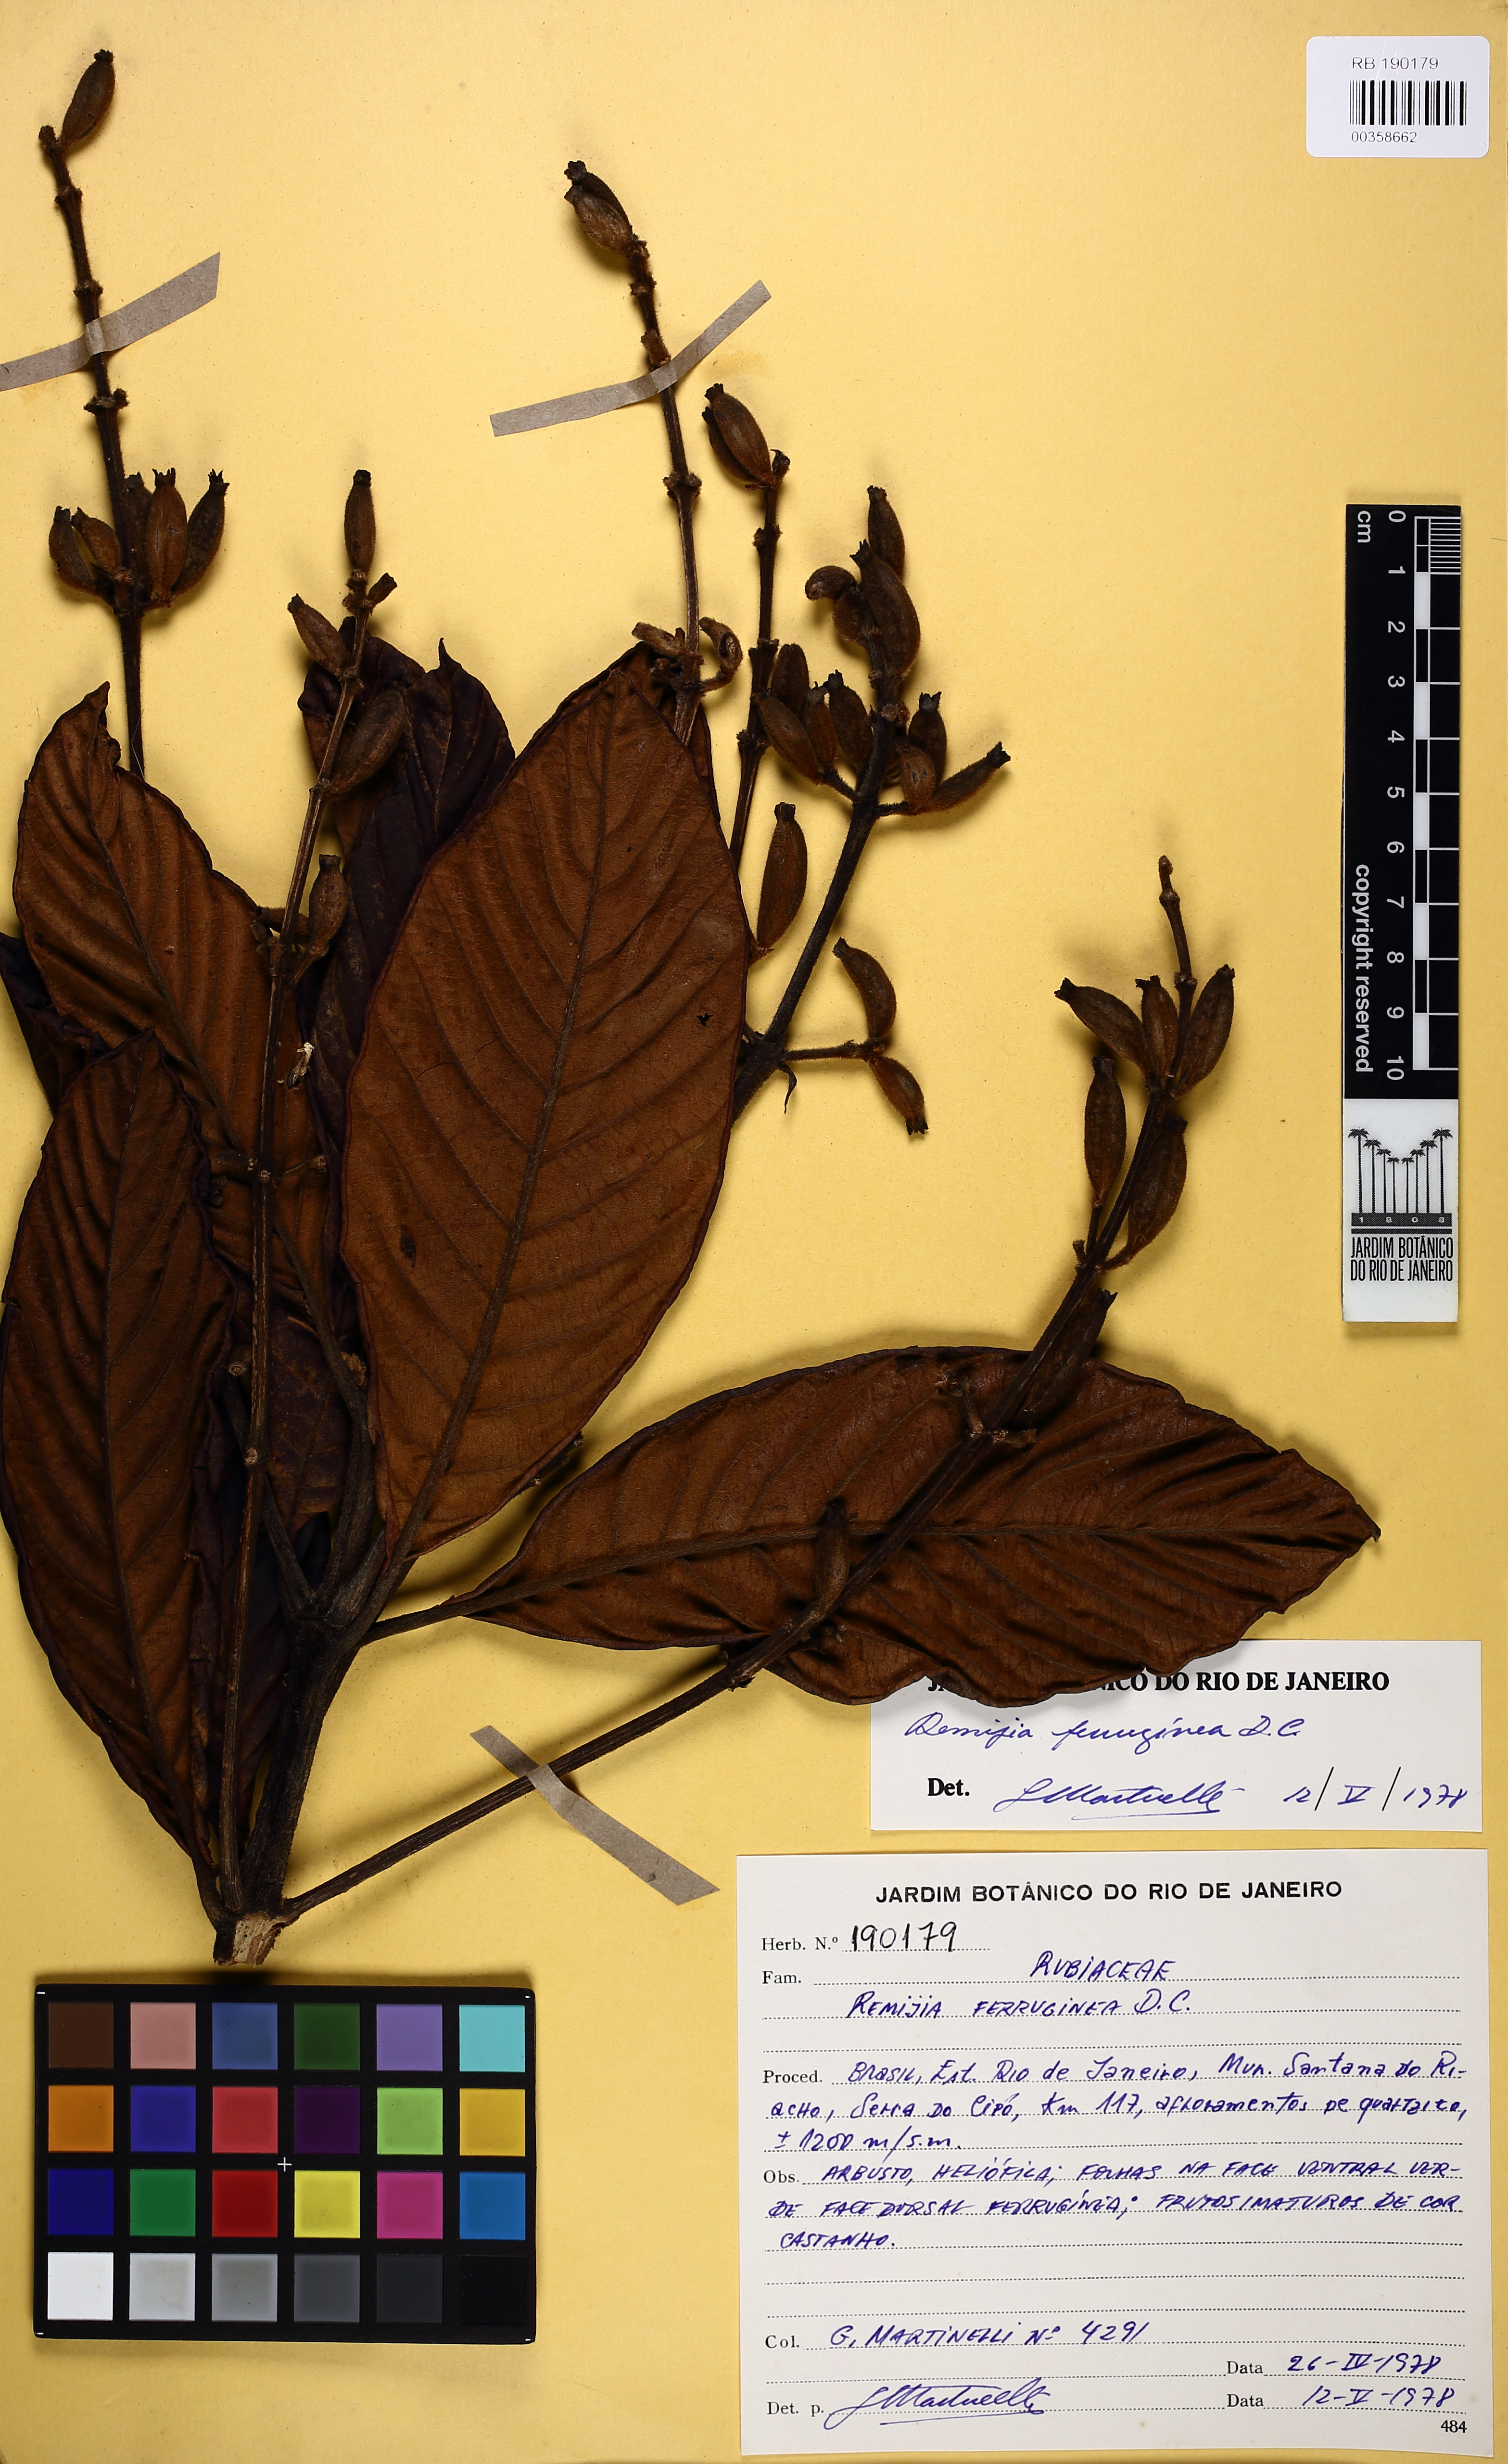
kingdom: Plantae
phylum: Tracheophyta
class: Magnoliopsida
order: Gentianales
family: Rubiaceae
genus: Remijia
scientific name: Remijia ferruginea
